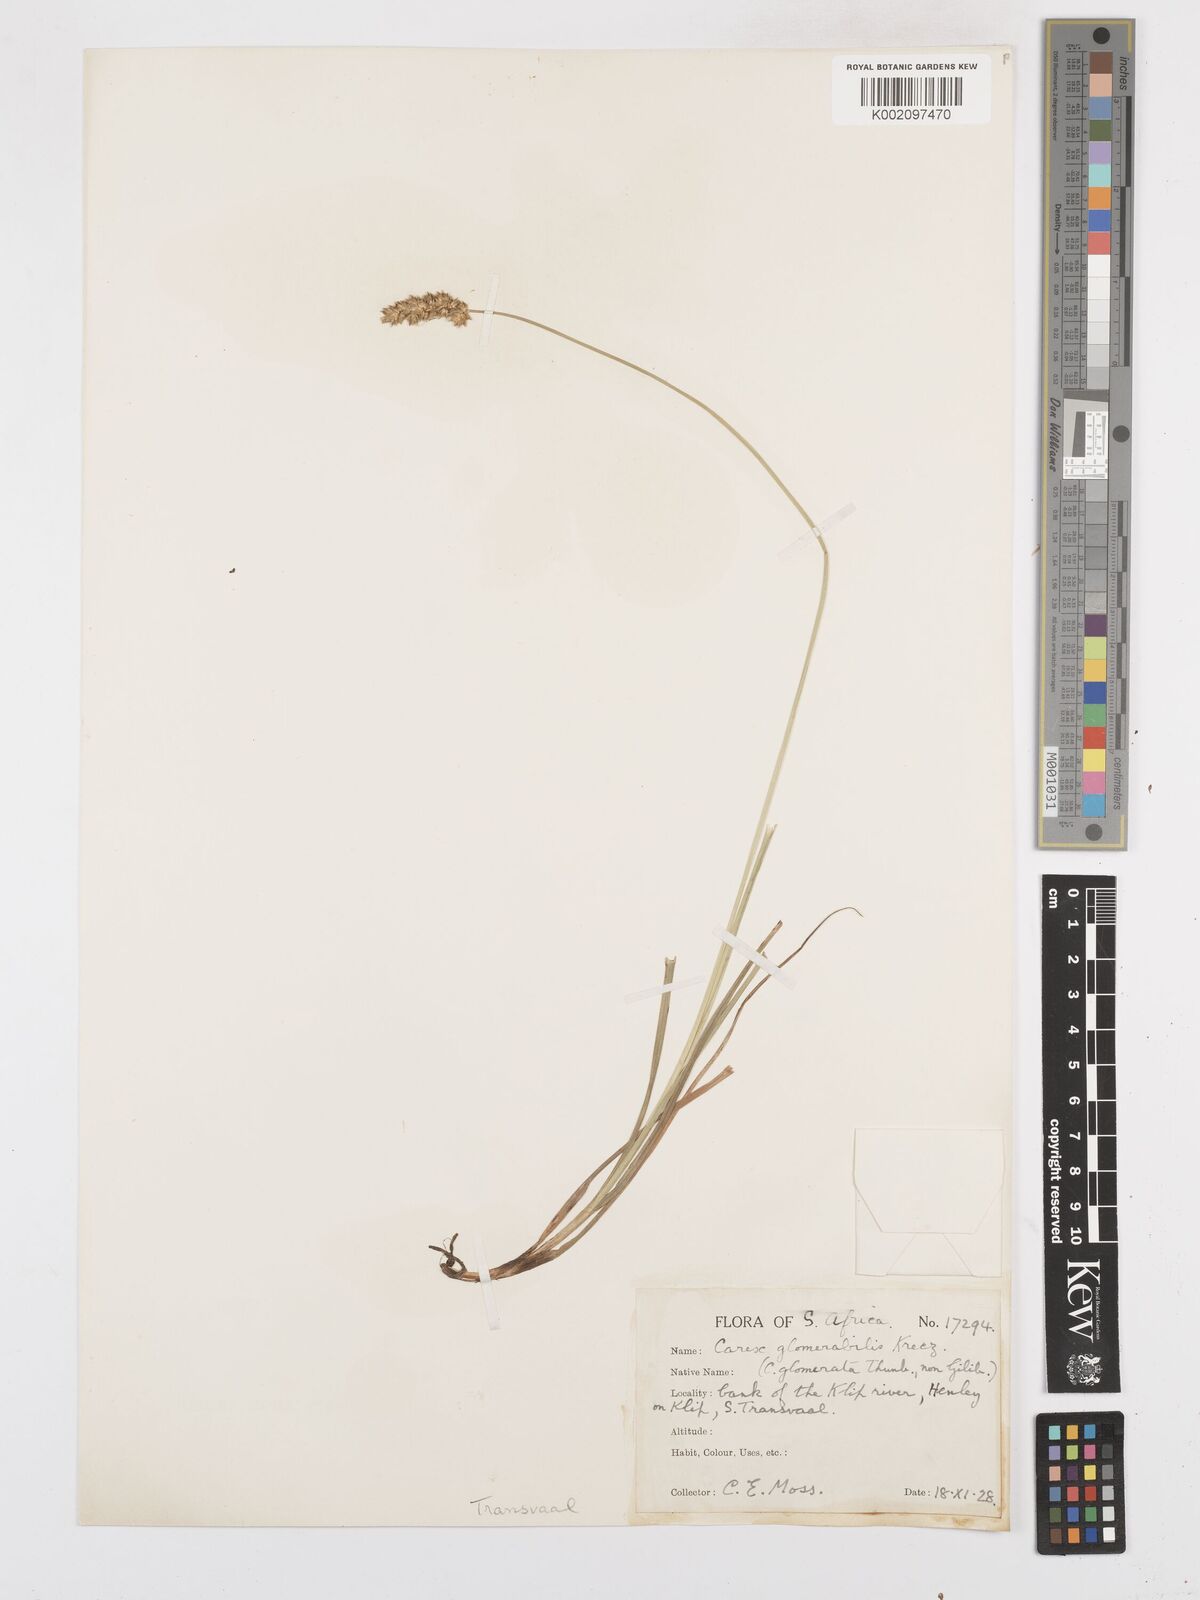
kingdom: Plantae
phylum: Tracheophyta
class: Liliopsida
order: Poales
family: Cyperaceae
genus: Carex
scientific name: Carex glomerata
